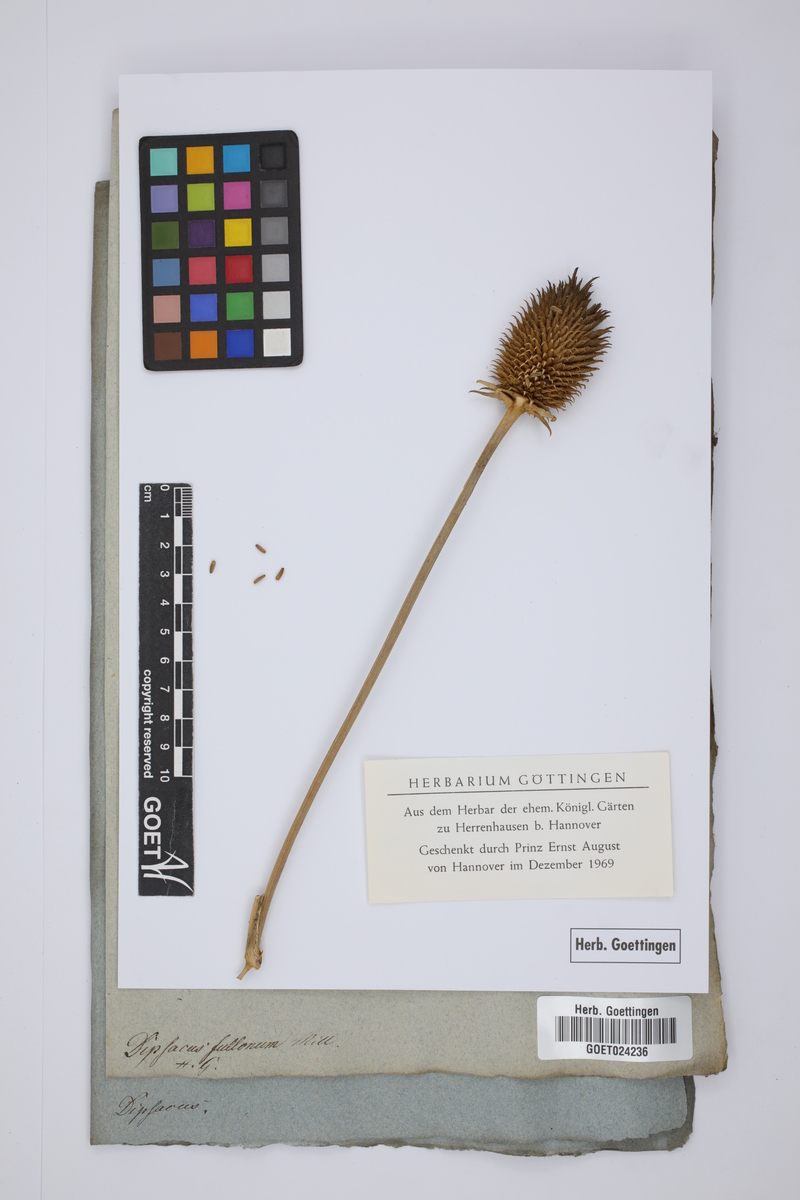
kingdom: Plantae
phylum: Tracheophyta
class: Magnoliopsida
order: Dipsacales
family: Caprifoliaceae
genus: Dipsacus
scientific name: Dipsacus fullonum
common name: Teasel
